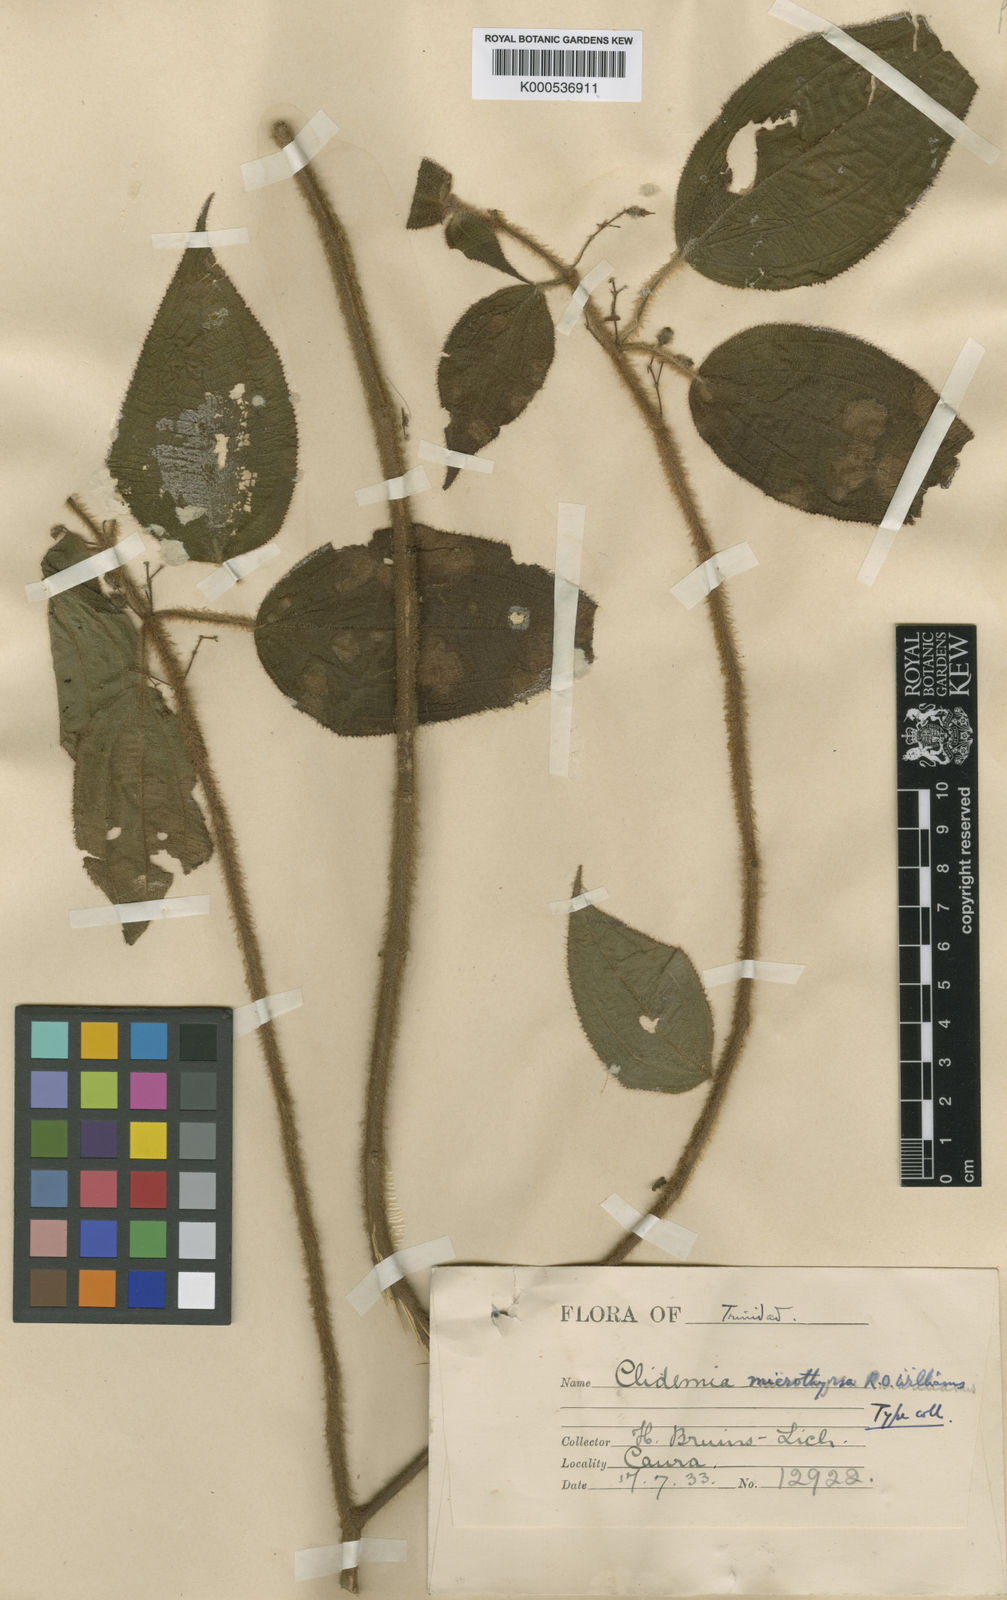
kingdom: Plantae
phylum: Tracheophyta
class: Magnoliopsida
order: Myrtales
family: Melastomataceae
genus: Miconia
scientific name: Miconia microthyrsa
